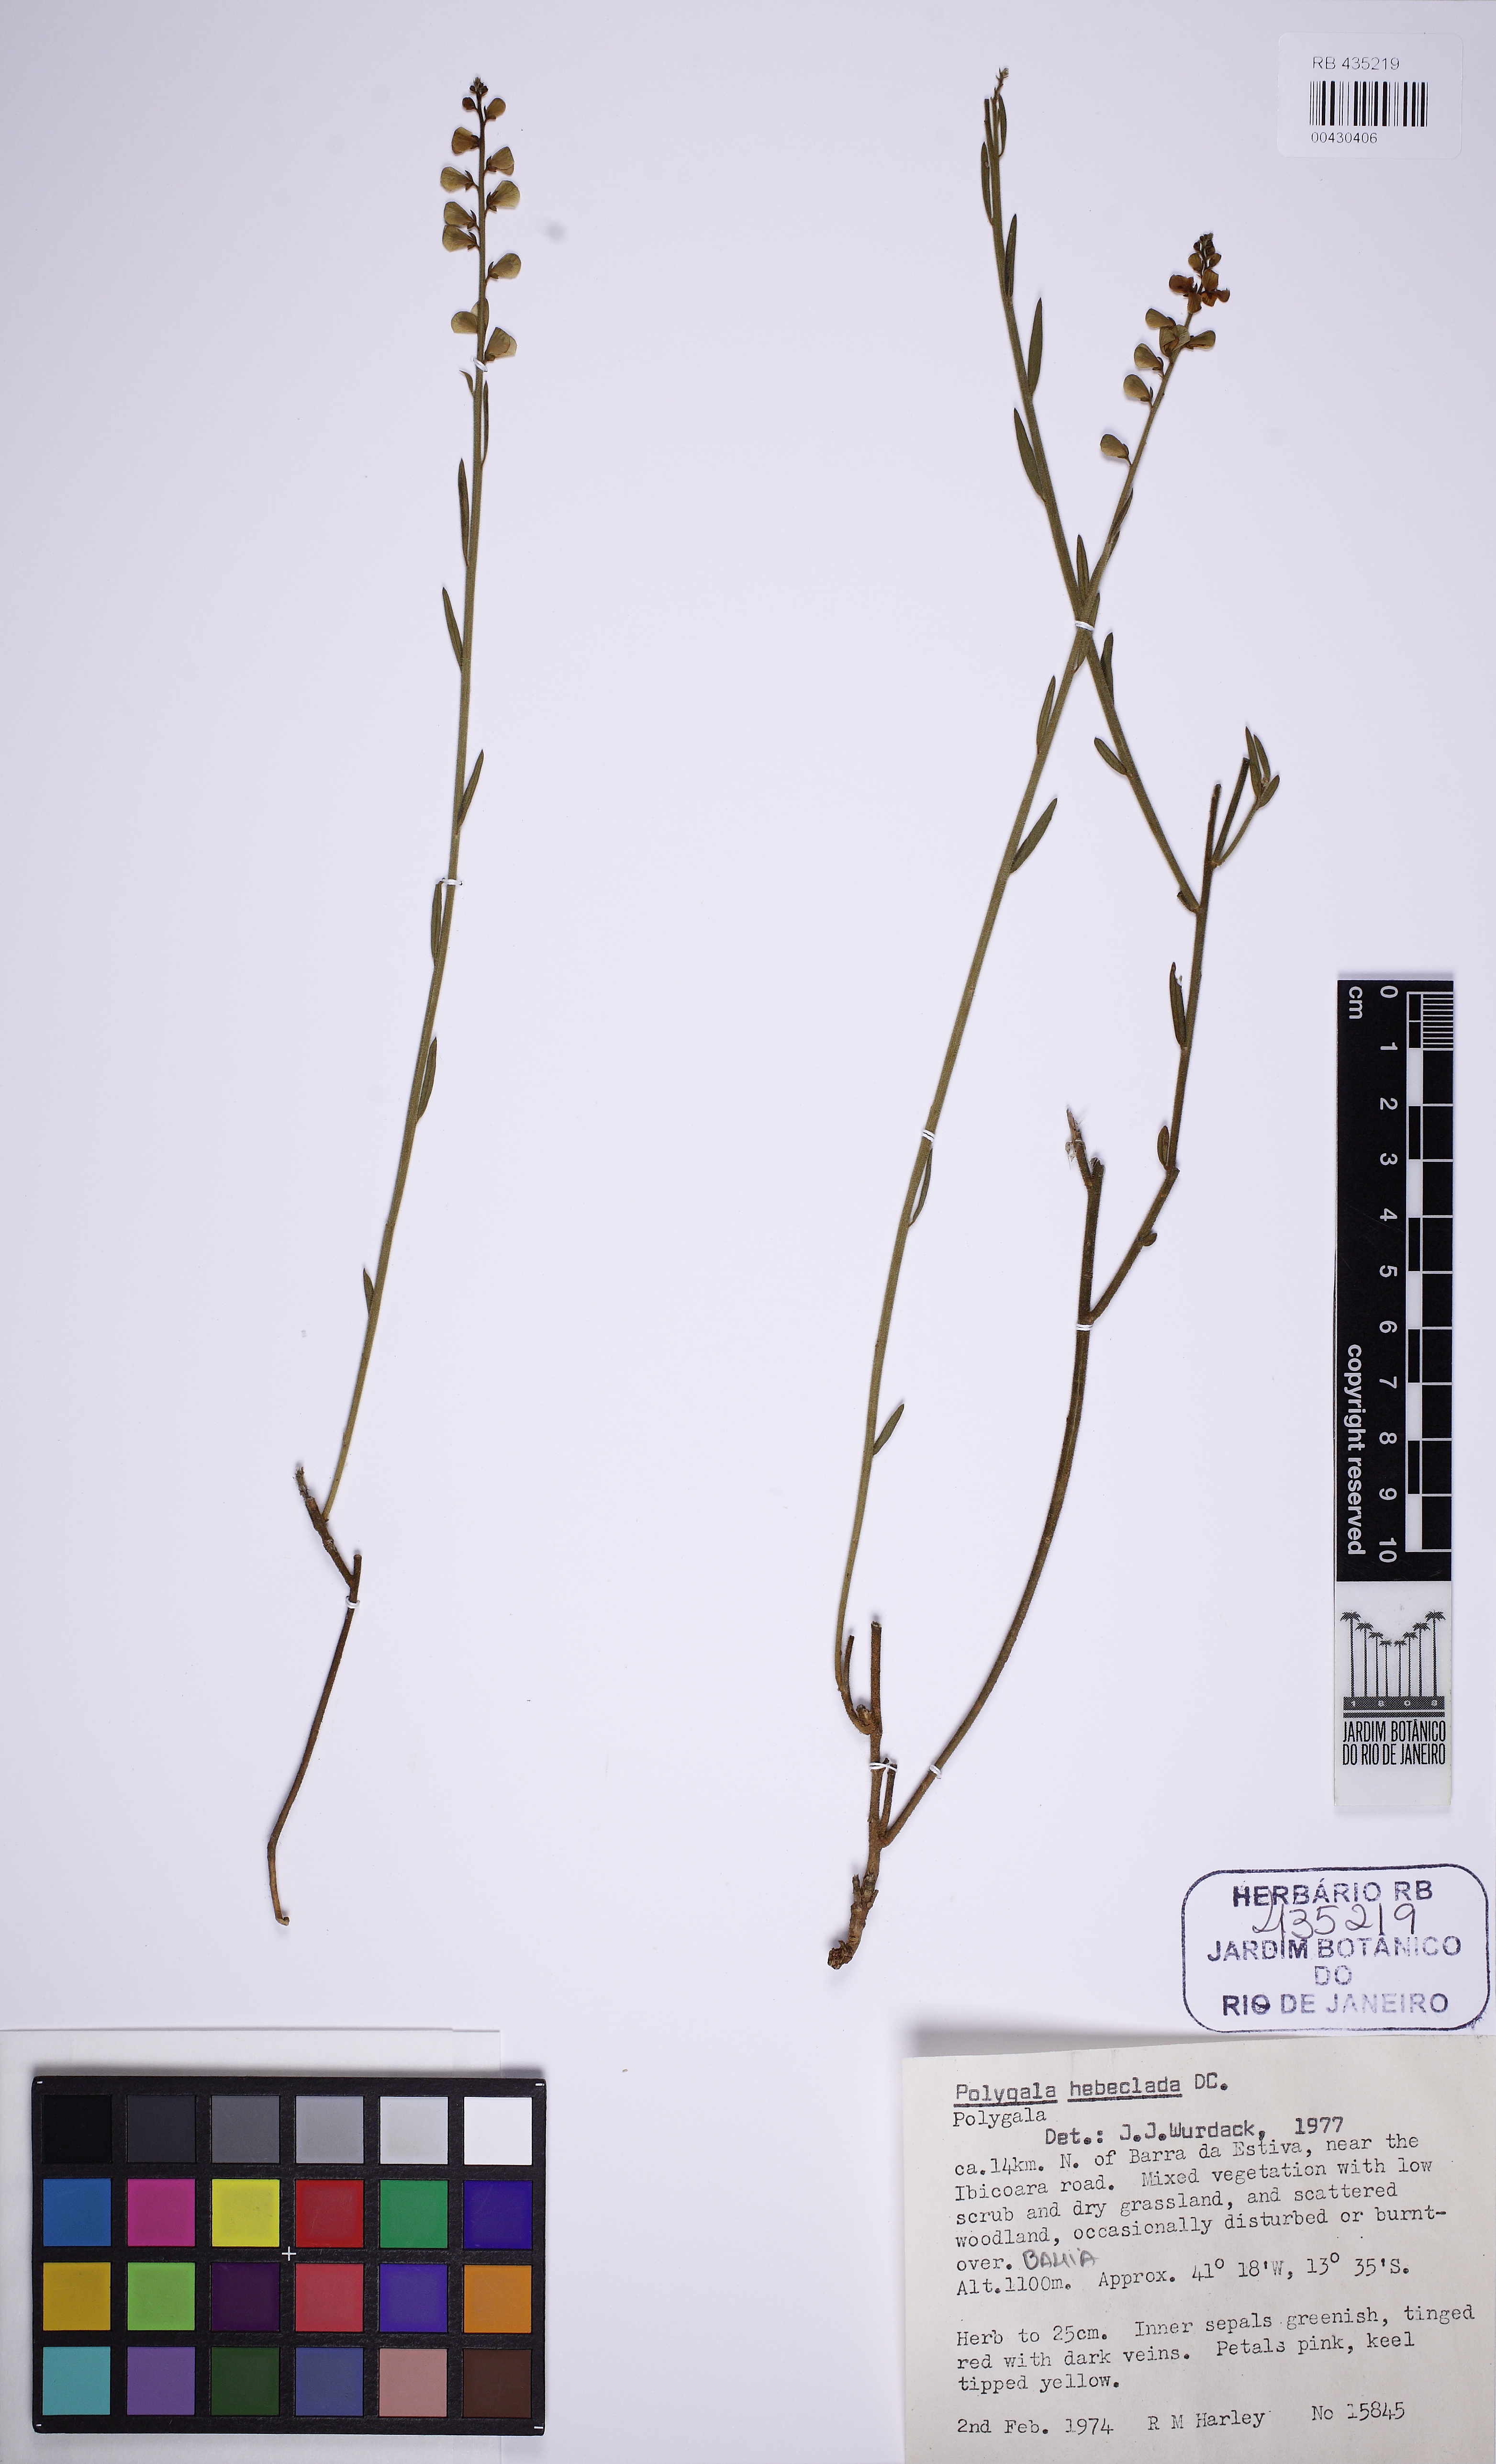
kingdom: Plantae
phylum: Tracheophyta
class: Magnoliopsida
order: Fabales
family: Polygalaceae
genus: Asemeia
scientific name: Asemeia hebeclada
